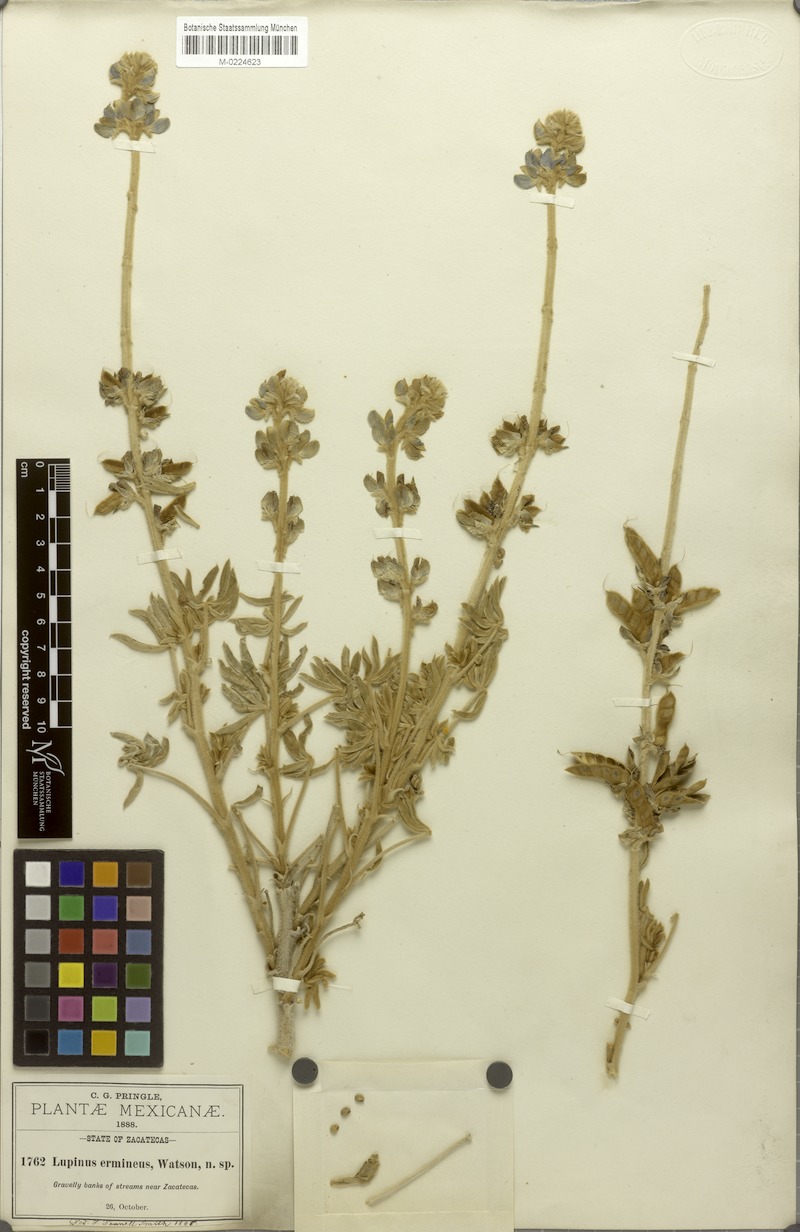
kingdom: Plantae
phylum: Tracheophyta
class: Magnoliopsida
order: Fabales
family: Fabaceae
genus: Lupinus
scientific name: Lupinus ermineus
